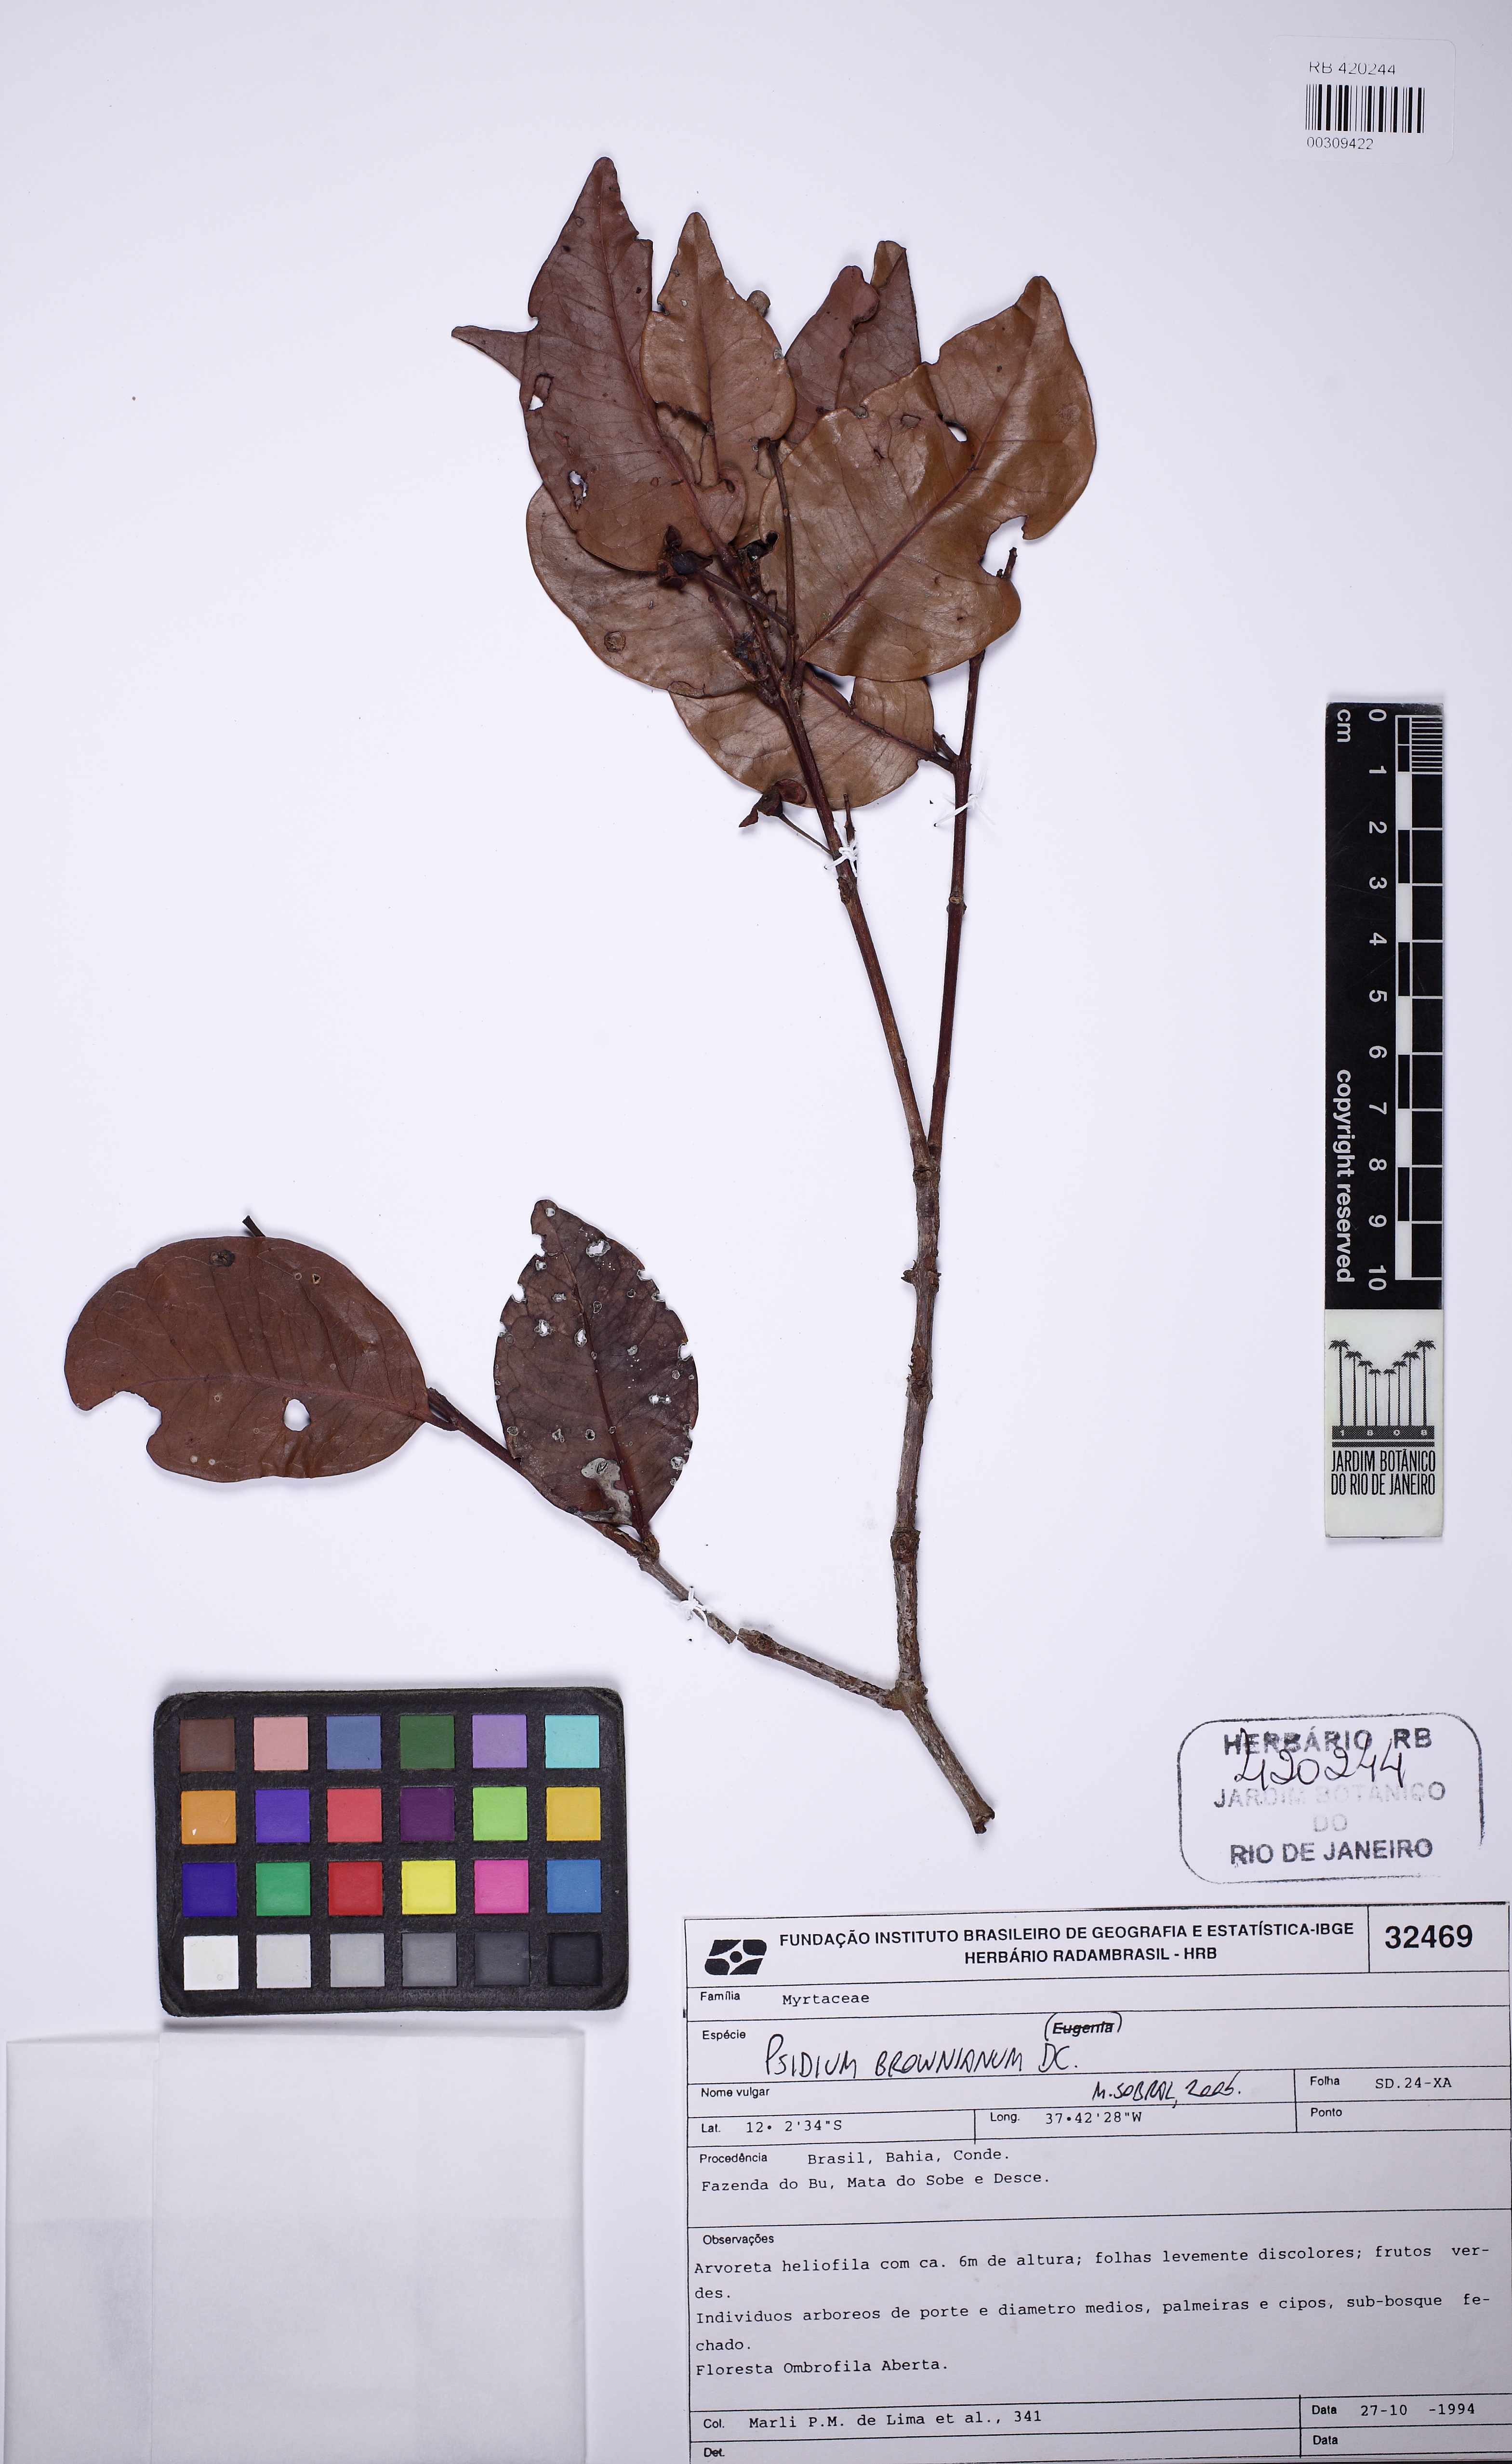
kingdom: Plantae
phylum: Tracheophyta
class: Magnoliopsida
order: Myrtales
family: Myrtaceae
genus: Psidium
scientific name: Psidium bahianum
